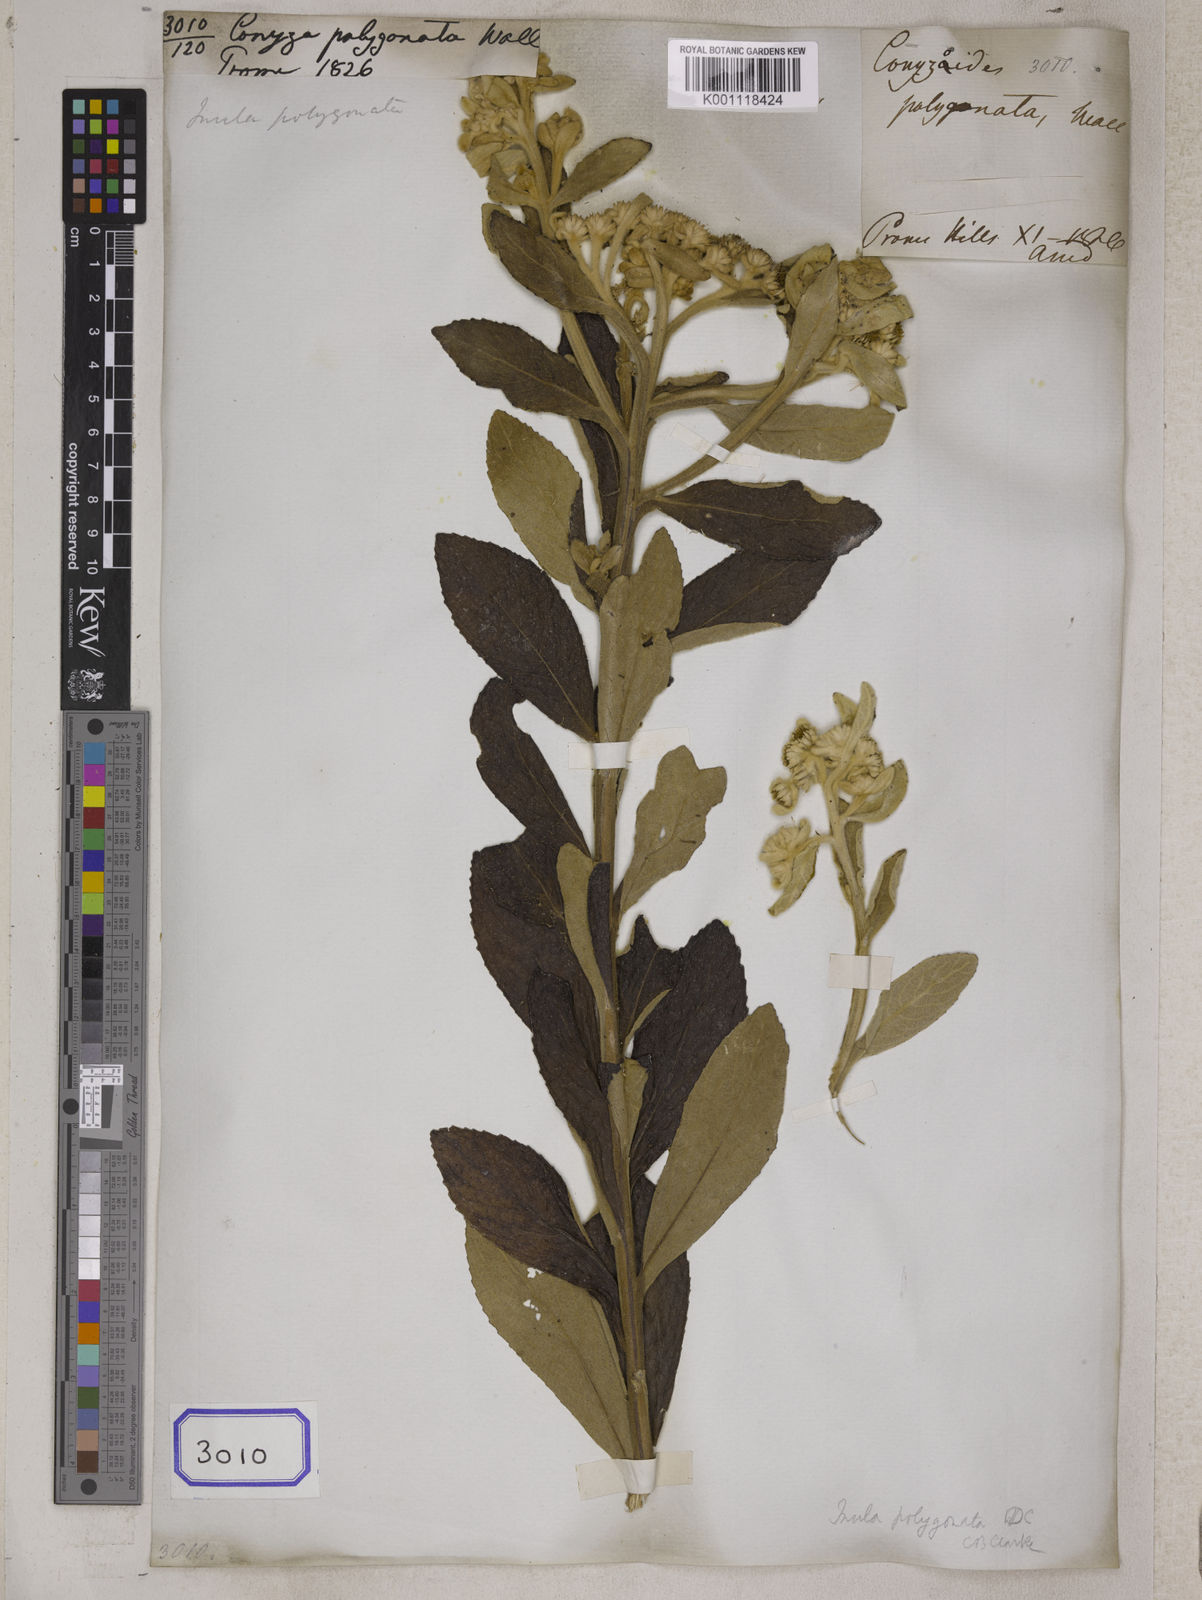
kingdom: Plantae
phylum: Tracheophyta
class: Magnoliopsida
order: Asterales
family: Asteraceae
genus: Erigeron
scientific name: Erigeron Conyza polygonata
